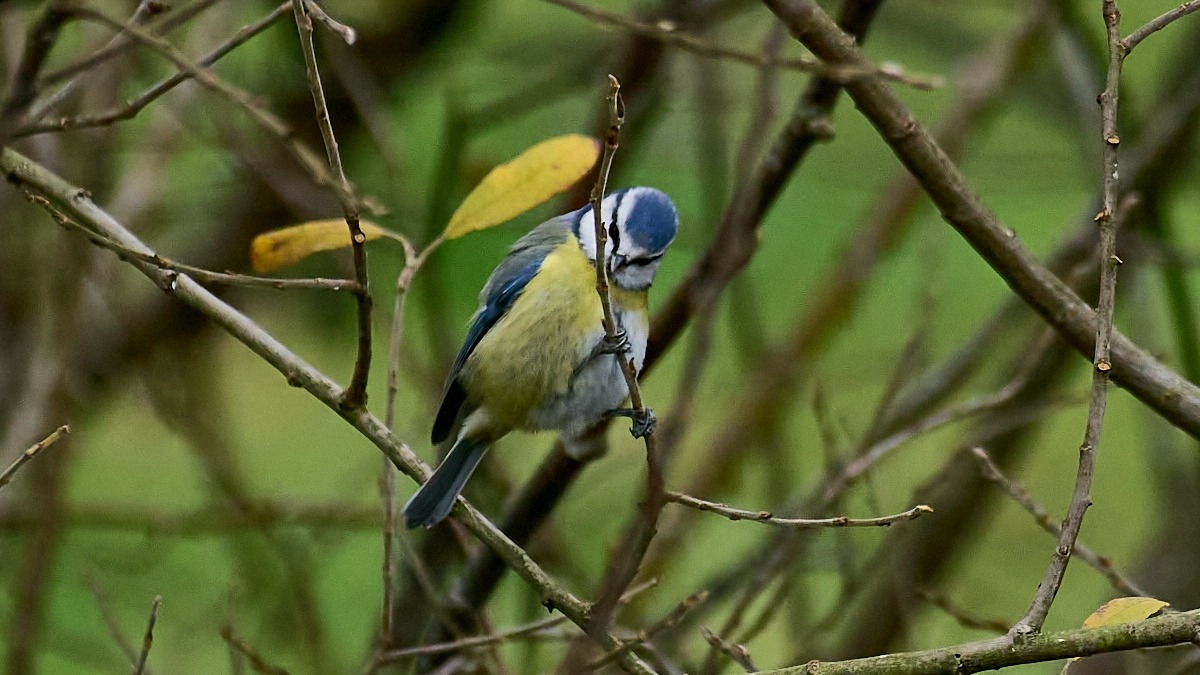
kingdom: Animalia
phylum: Chordata
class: Aves
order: Passeriformes
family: Paridae
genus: Cyanistes
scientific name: Cyanistes caeruleus
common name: Blåmejse
